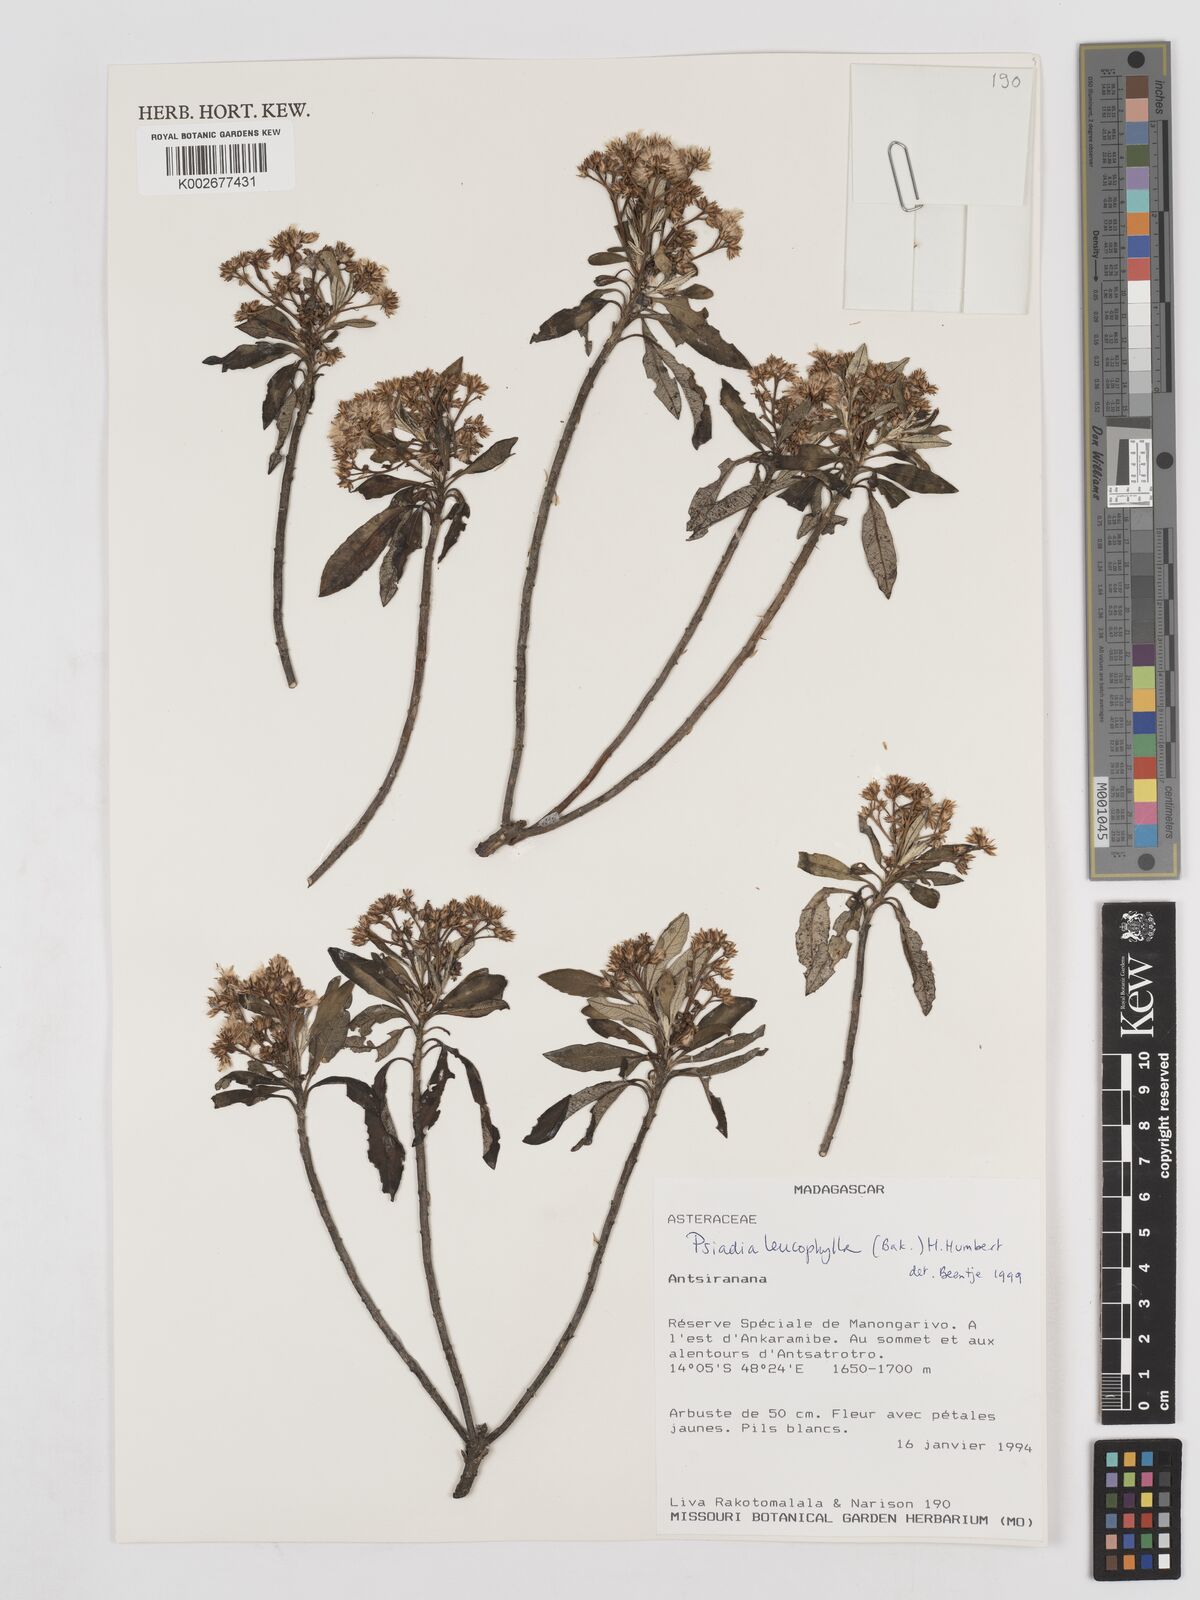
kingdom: Plantae
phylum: Tracheophyta
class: Magnoliopsida
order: Asterales
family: Asteraceae
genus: Psiadia
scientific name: Psiadia leucophylla
